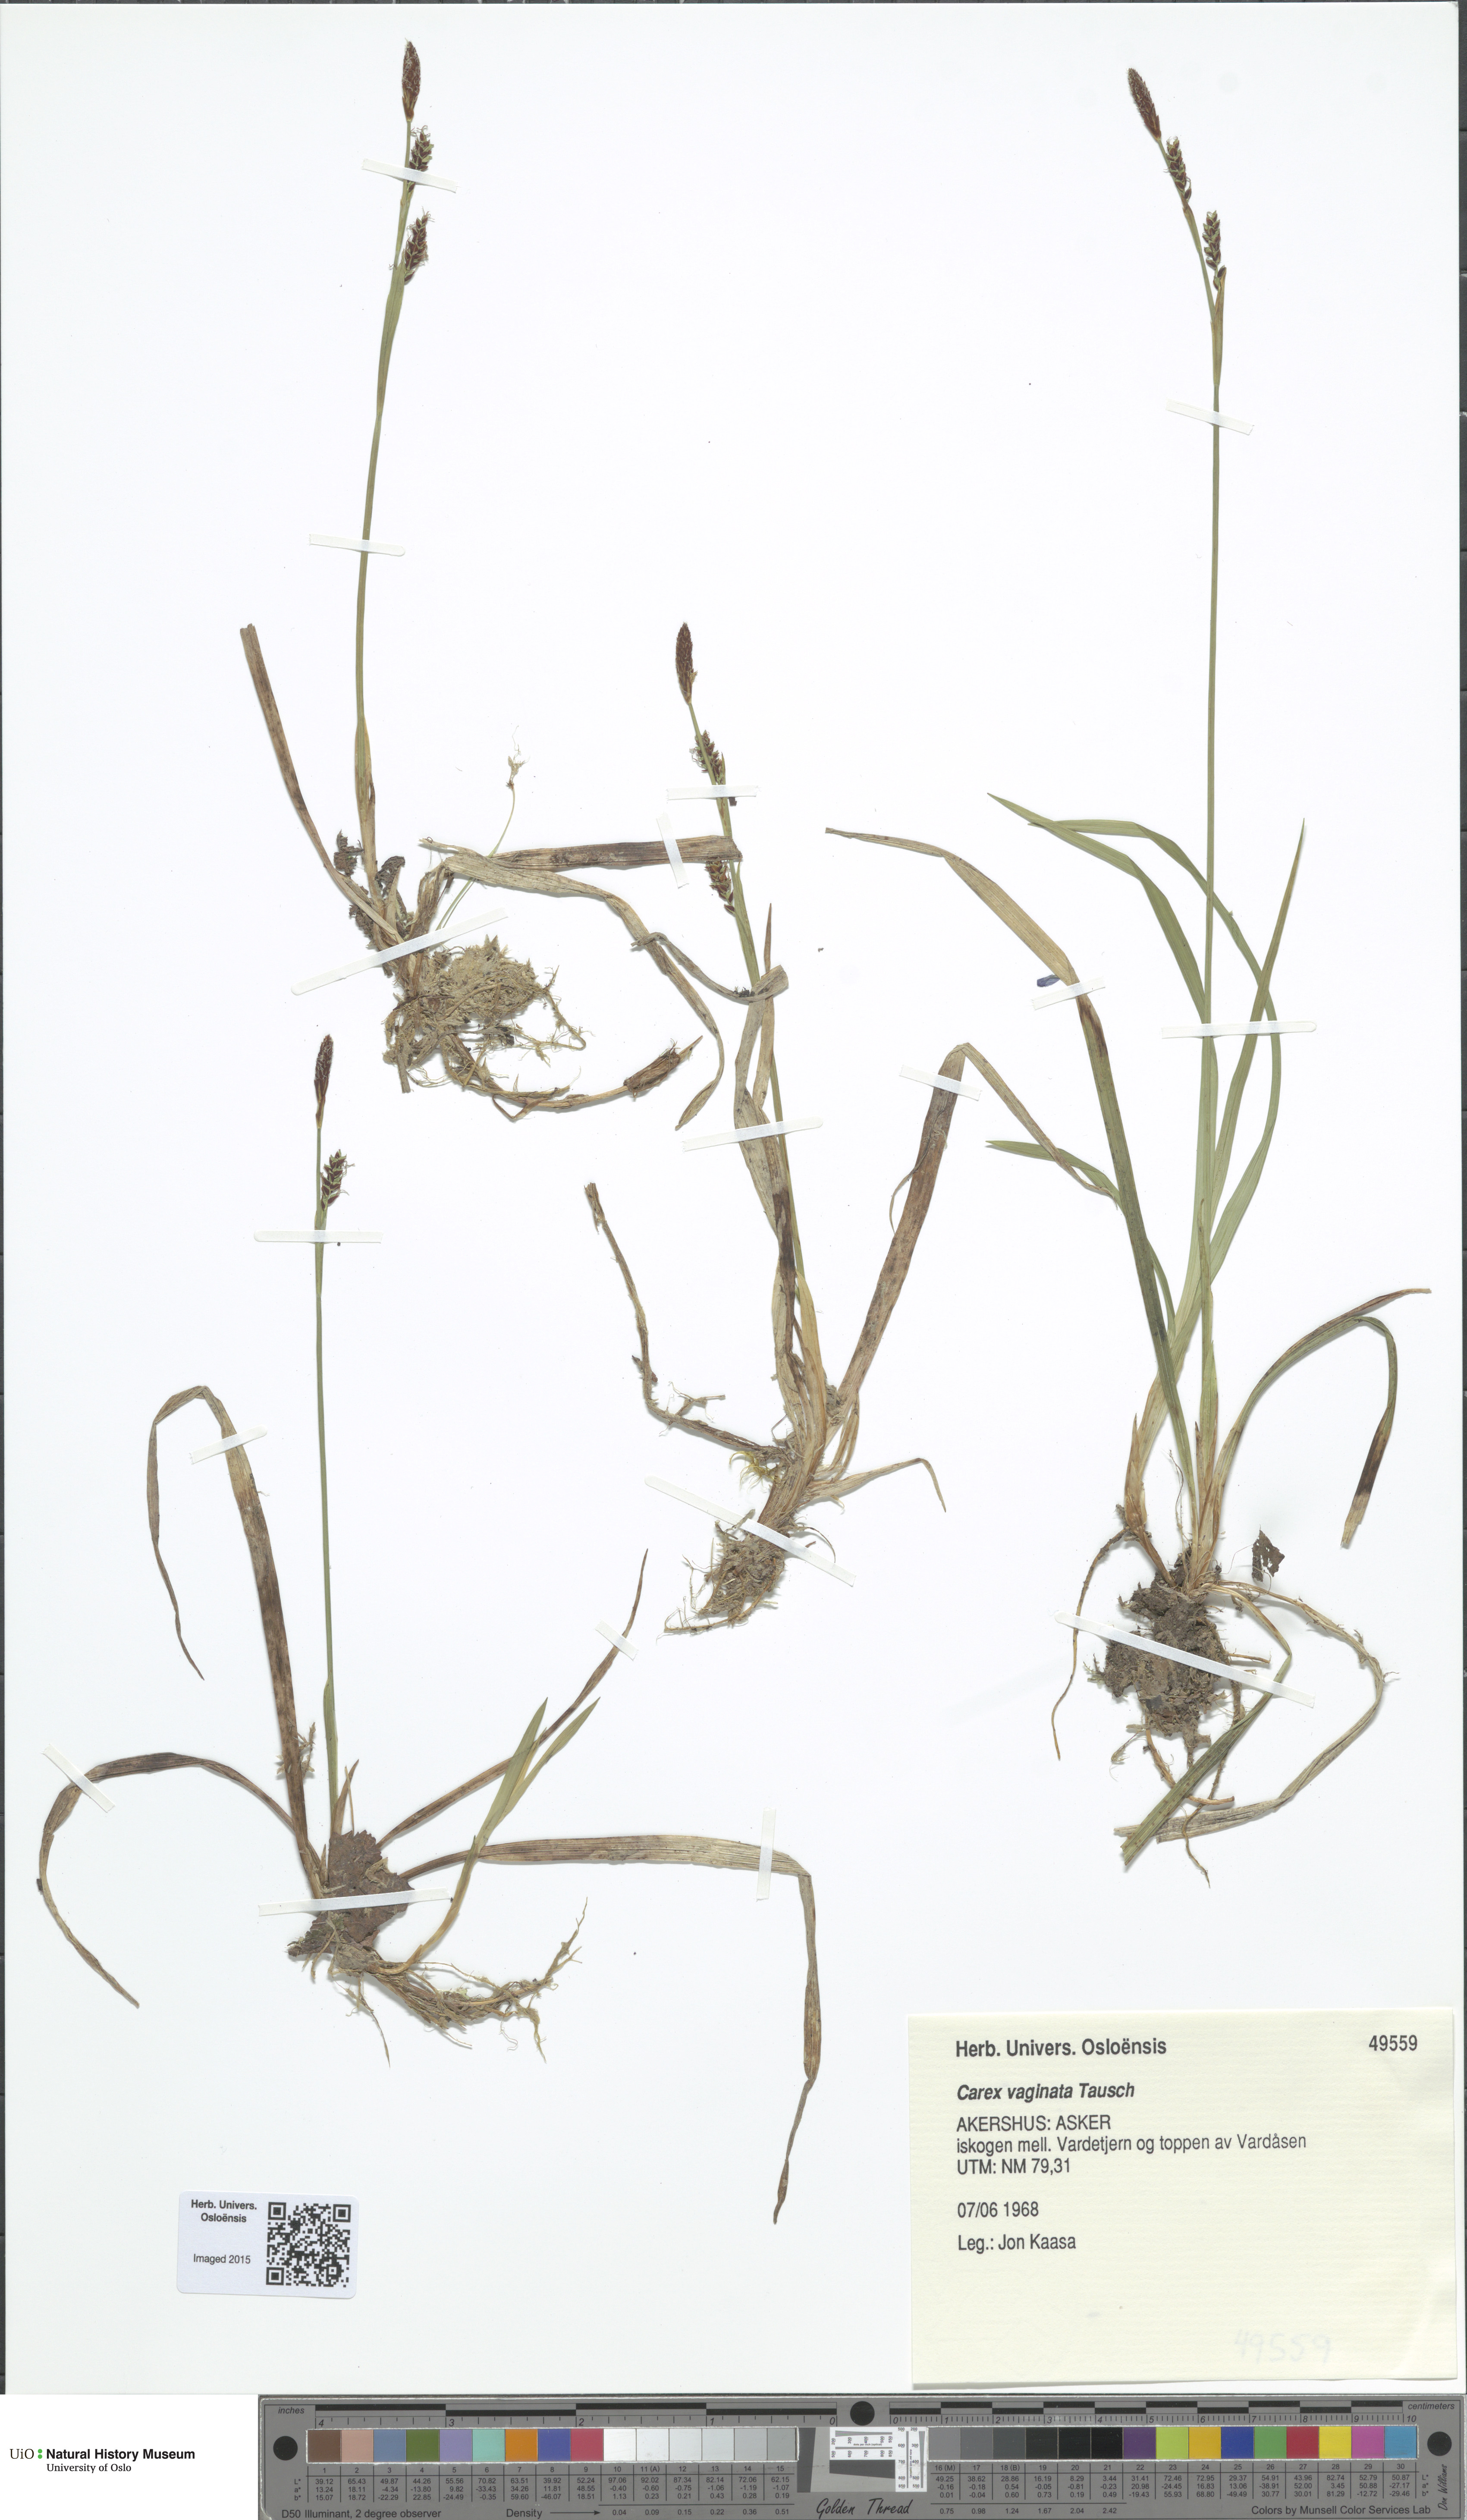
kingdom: Plantae
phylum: Tracheophyta
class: Liliopsida
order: Poales
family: Cyperaceae
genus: Carex
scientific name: Carex vaginata
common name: Sheathed sedge
